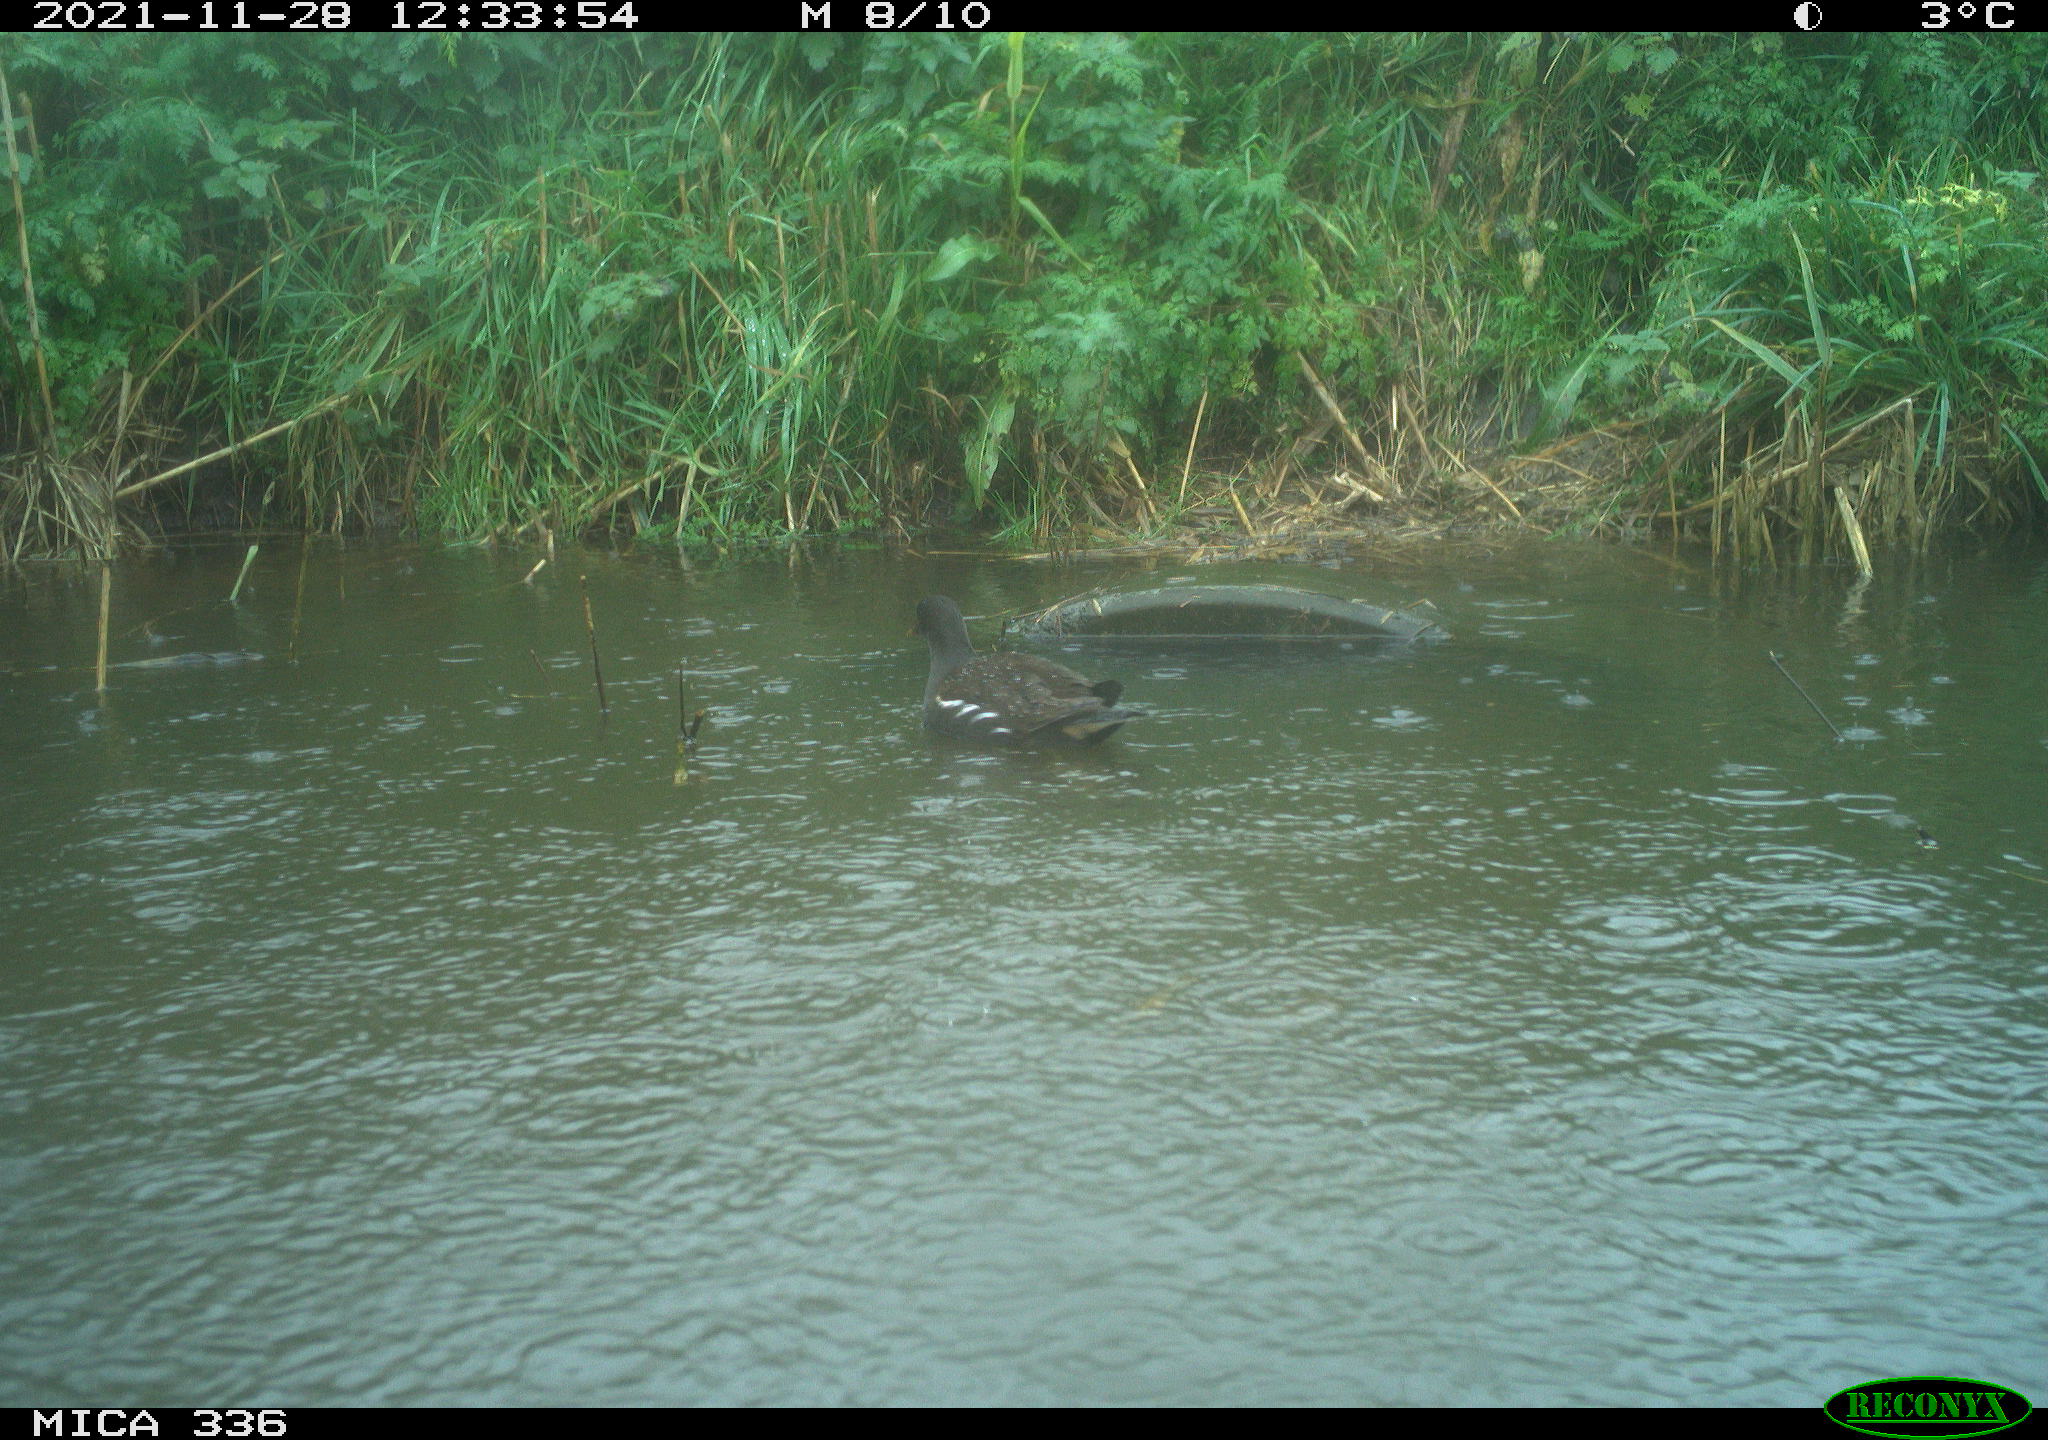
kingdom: Animalia
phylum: Chordata
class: Aves
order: Gruiformes
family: Rallidae
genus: Gallinula
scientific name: Gallinula chloropus
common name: Common moorhen
